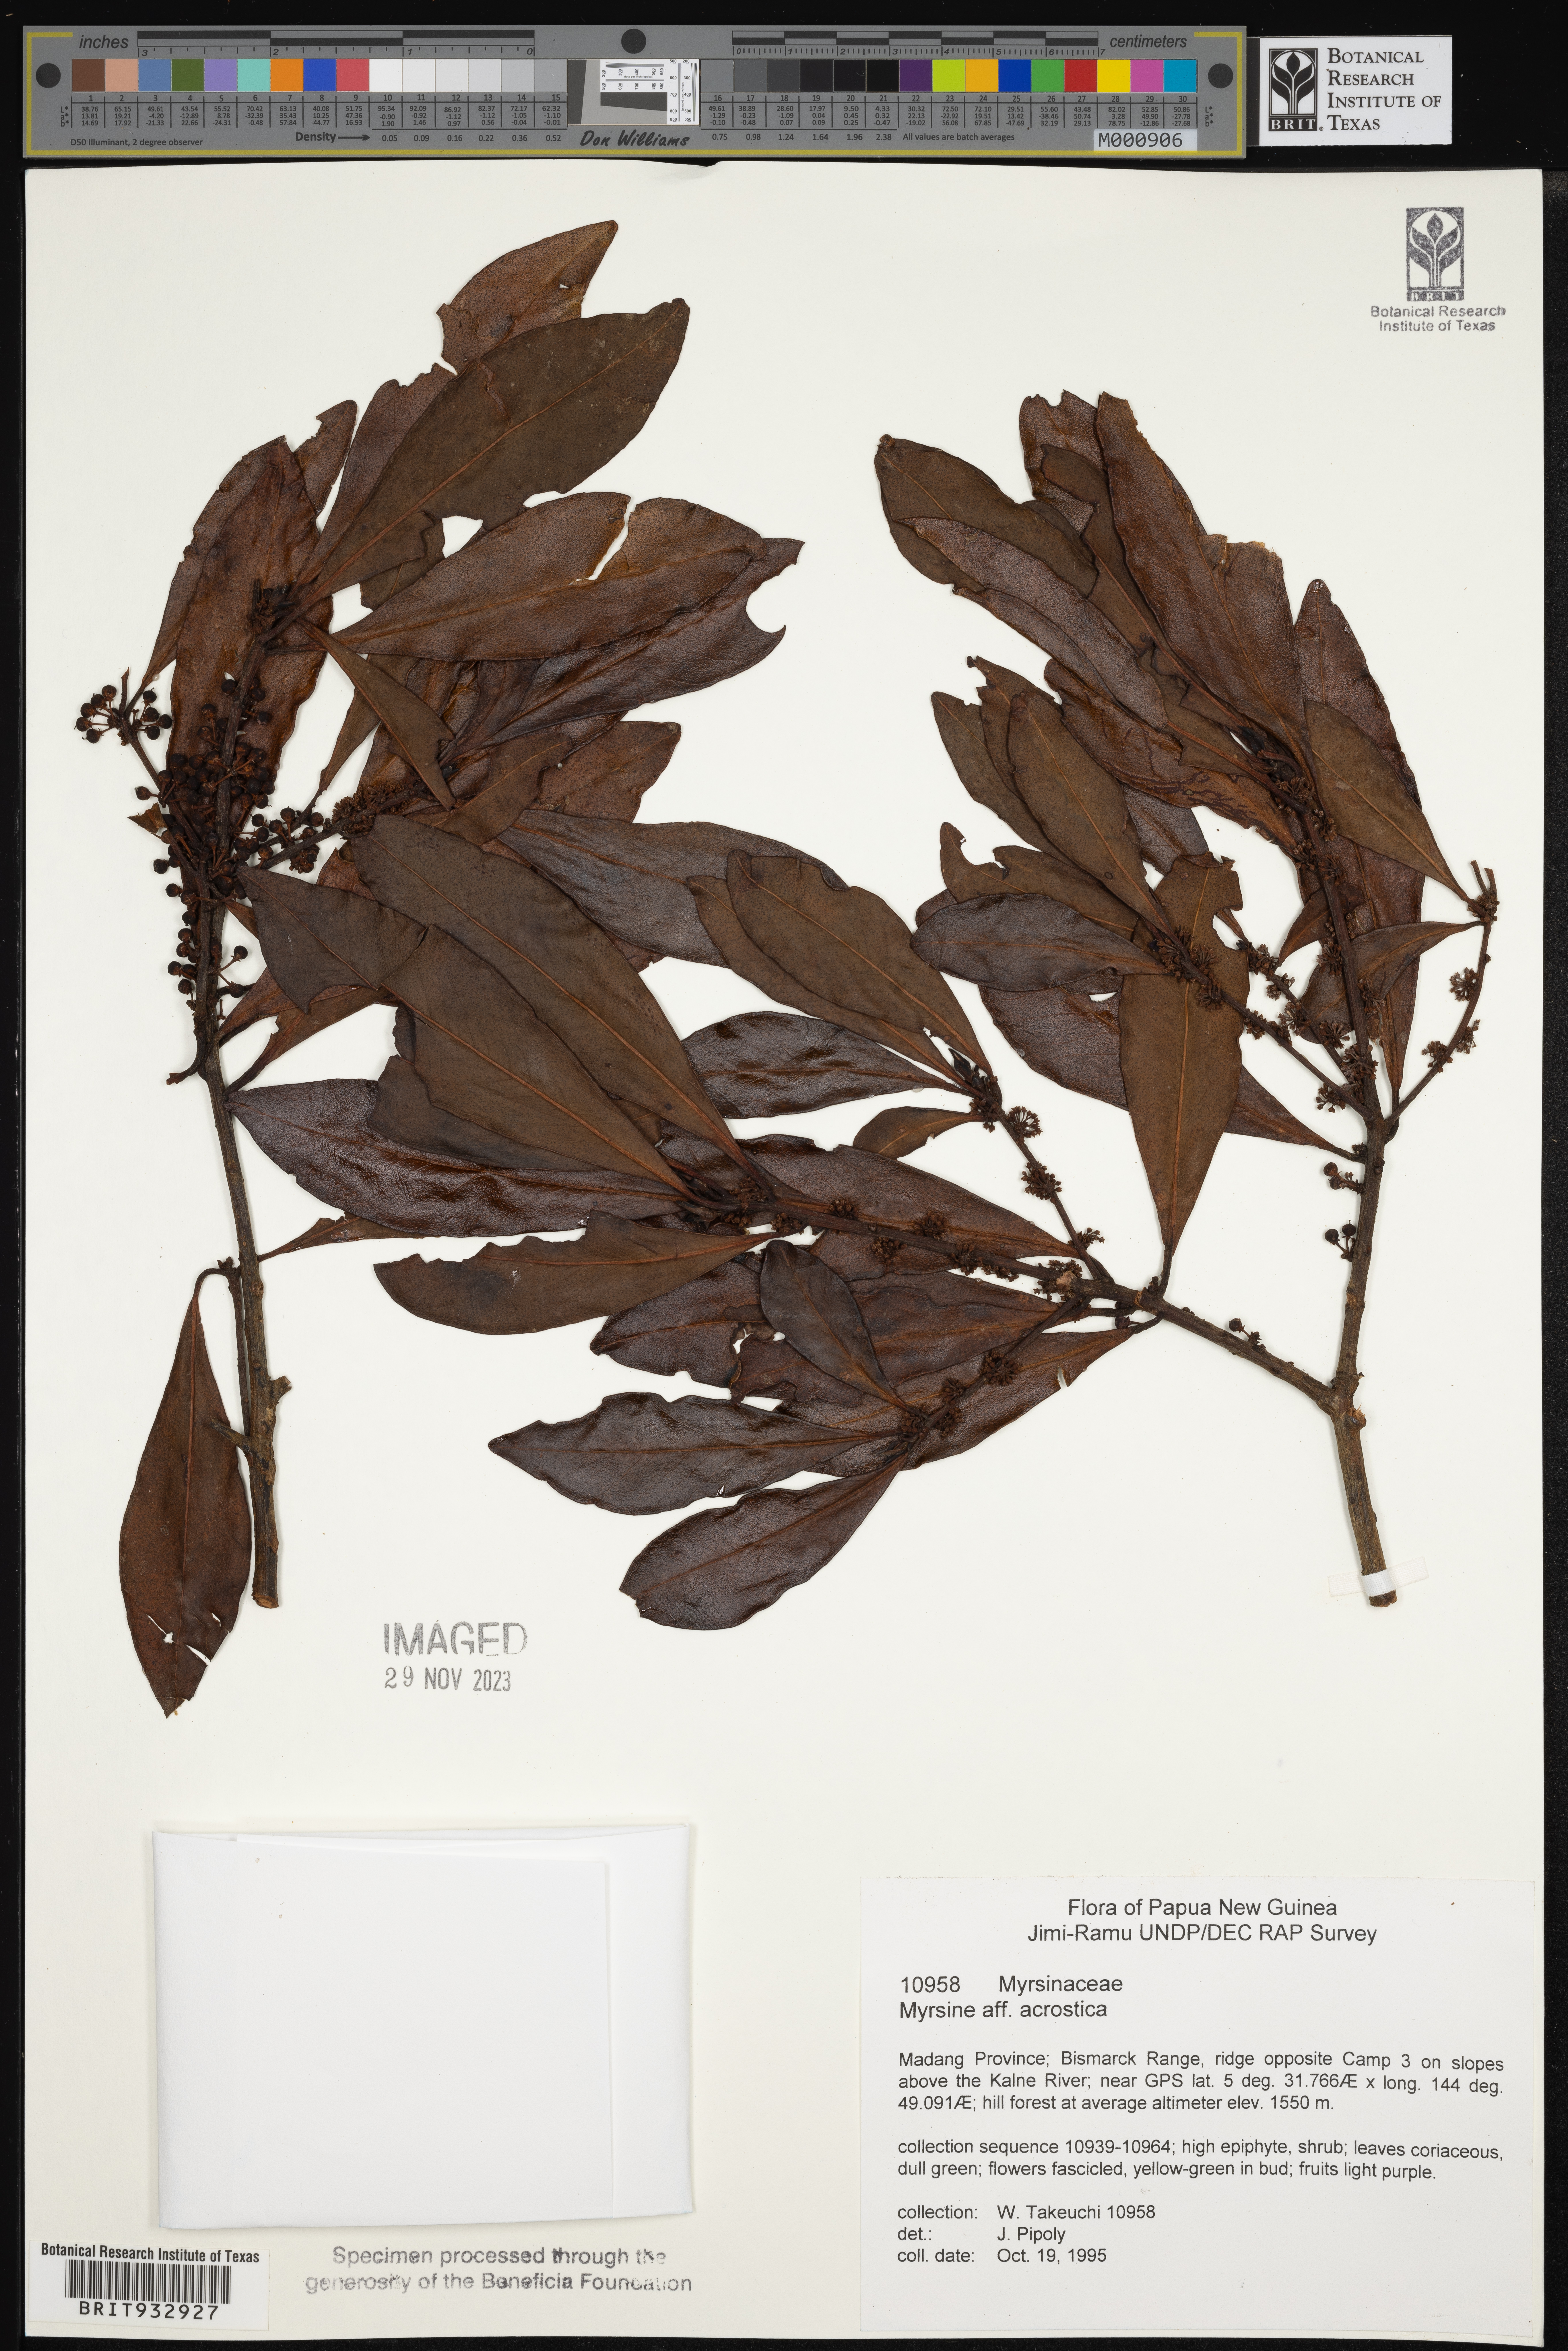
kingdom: Plantae
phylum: Tracheophyta
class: Magnoliopsida
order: Ericales
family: Primulaceae
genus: Myrsine
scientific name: Myrsine
